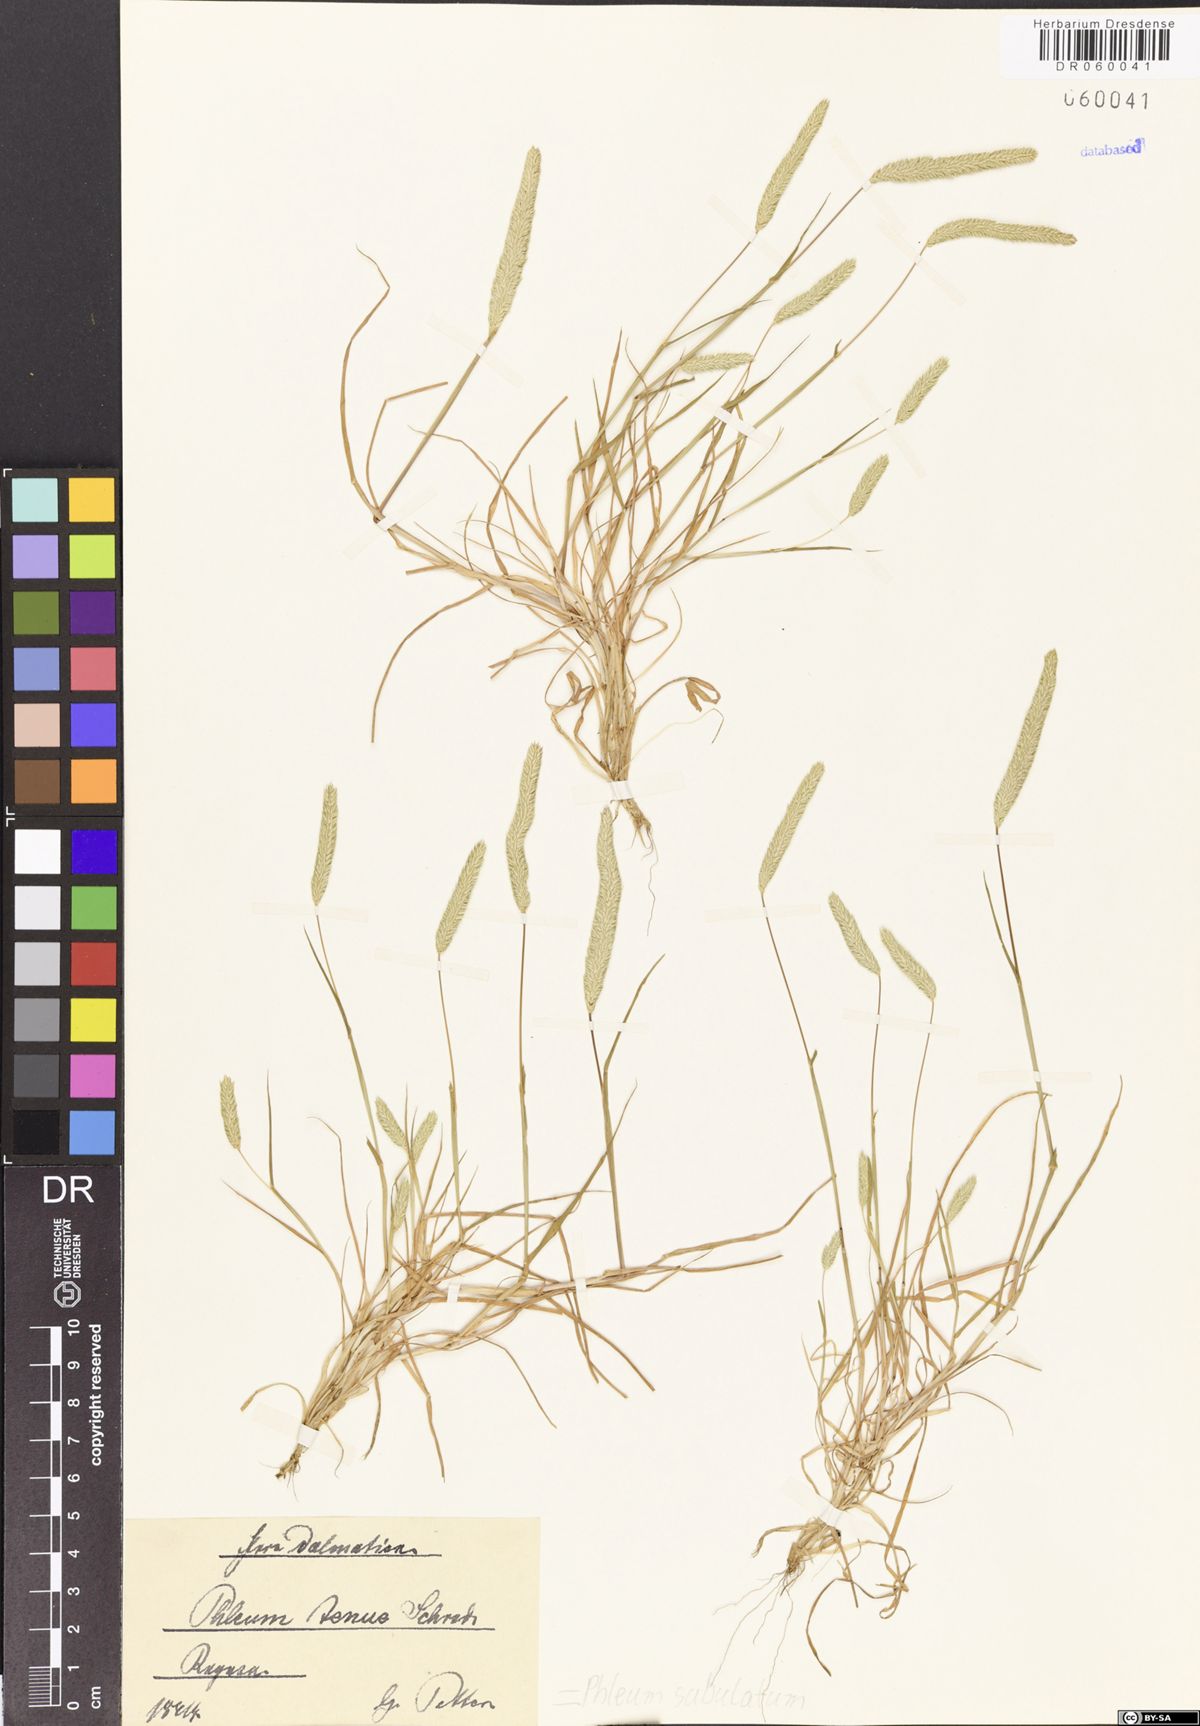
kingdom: Plantae
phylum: Tracheophyta
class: Liliopsida
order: Poales
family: Poaceae
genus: Phleum
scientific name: Phleum subulatum
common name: Italian timothy
